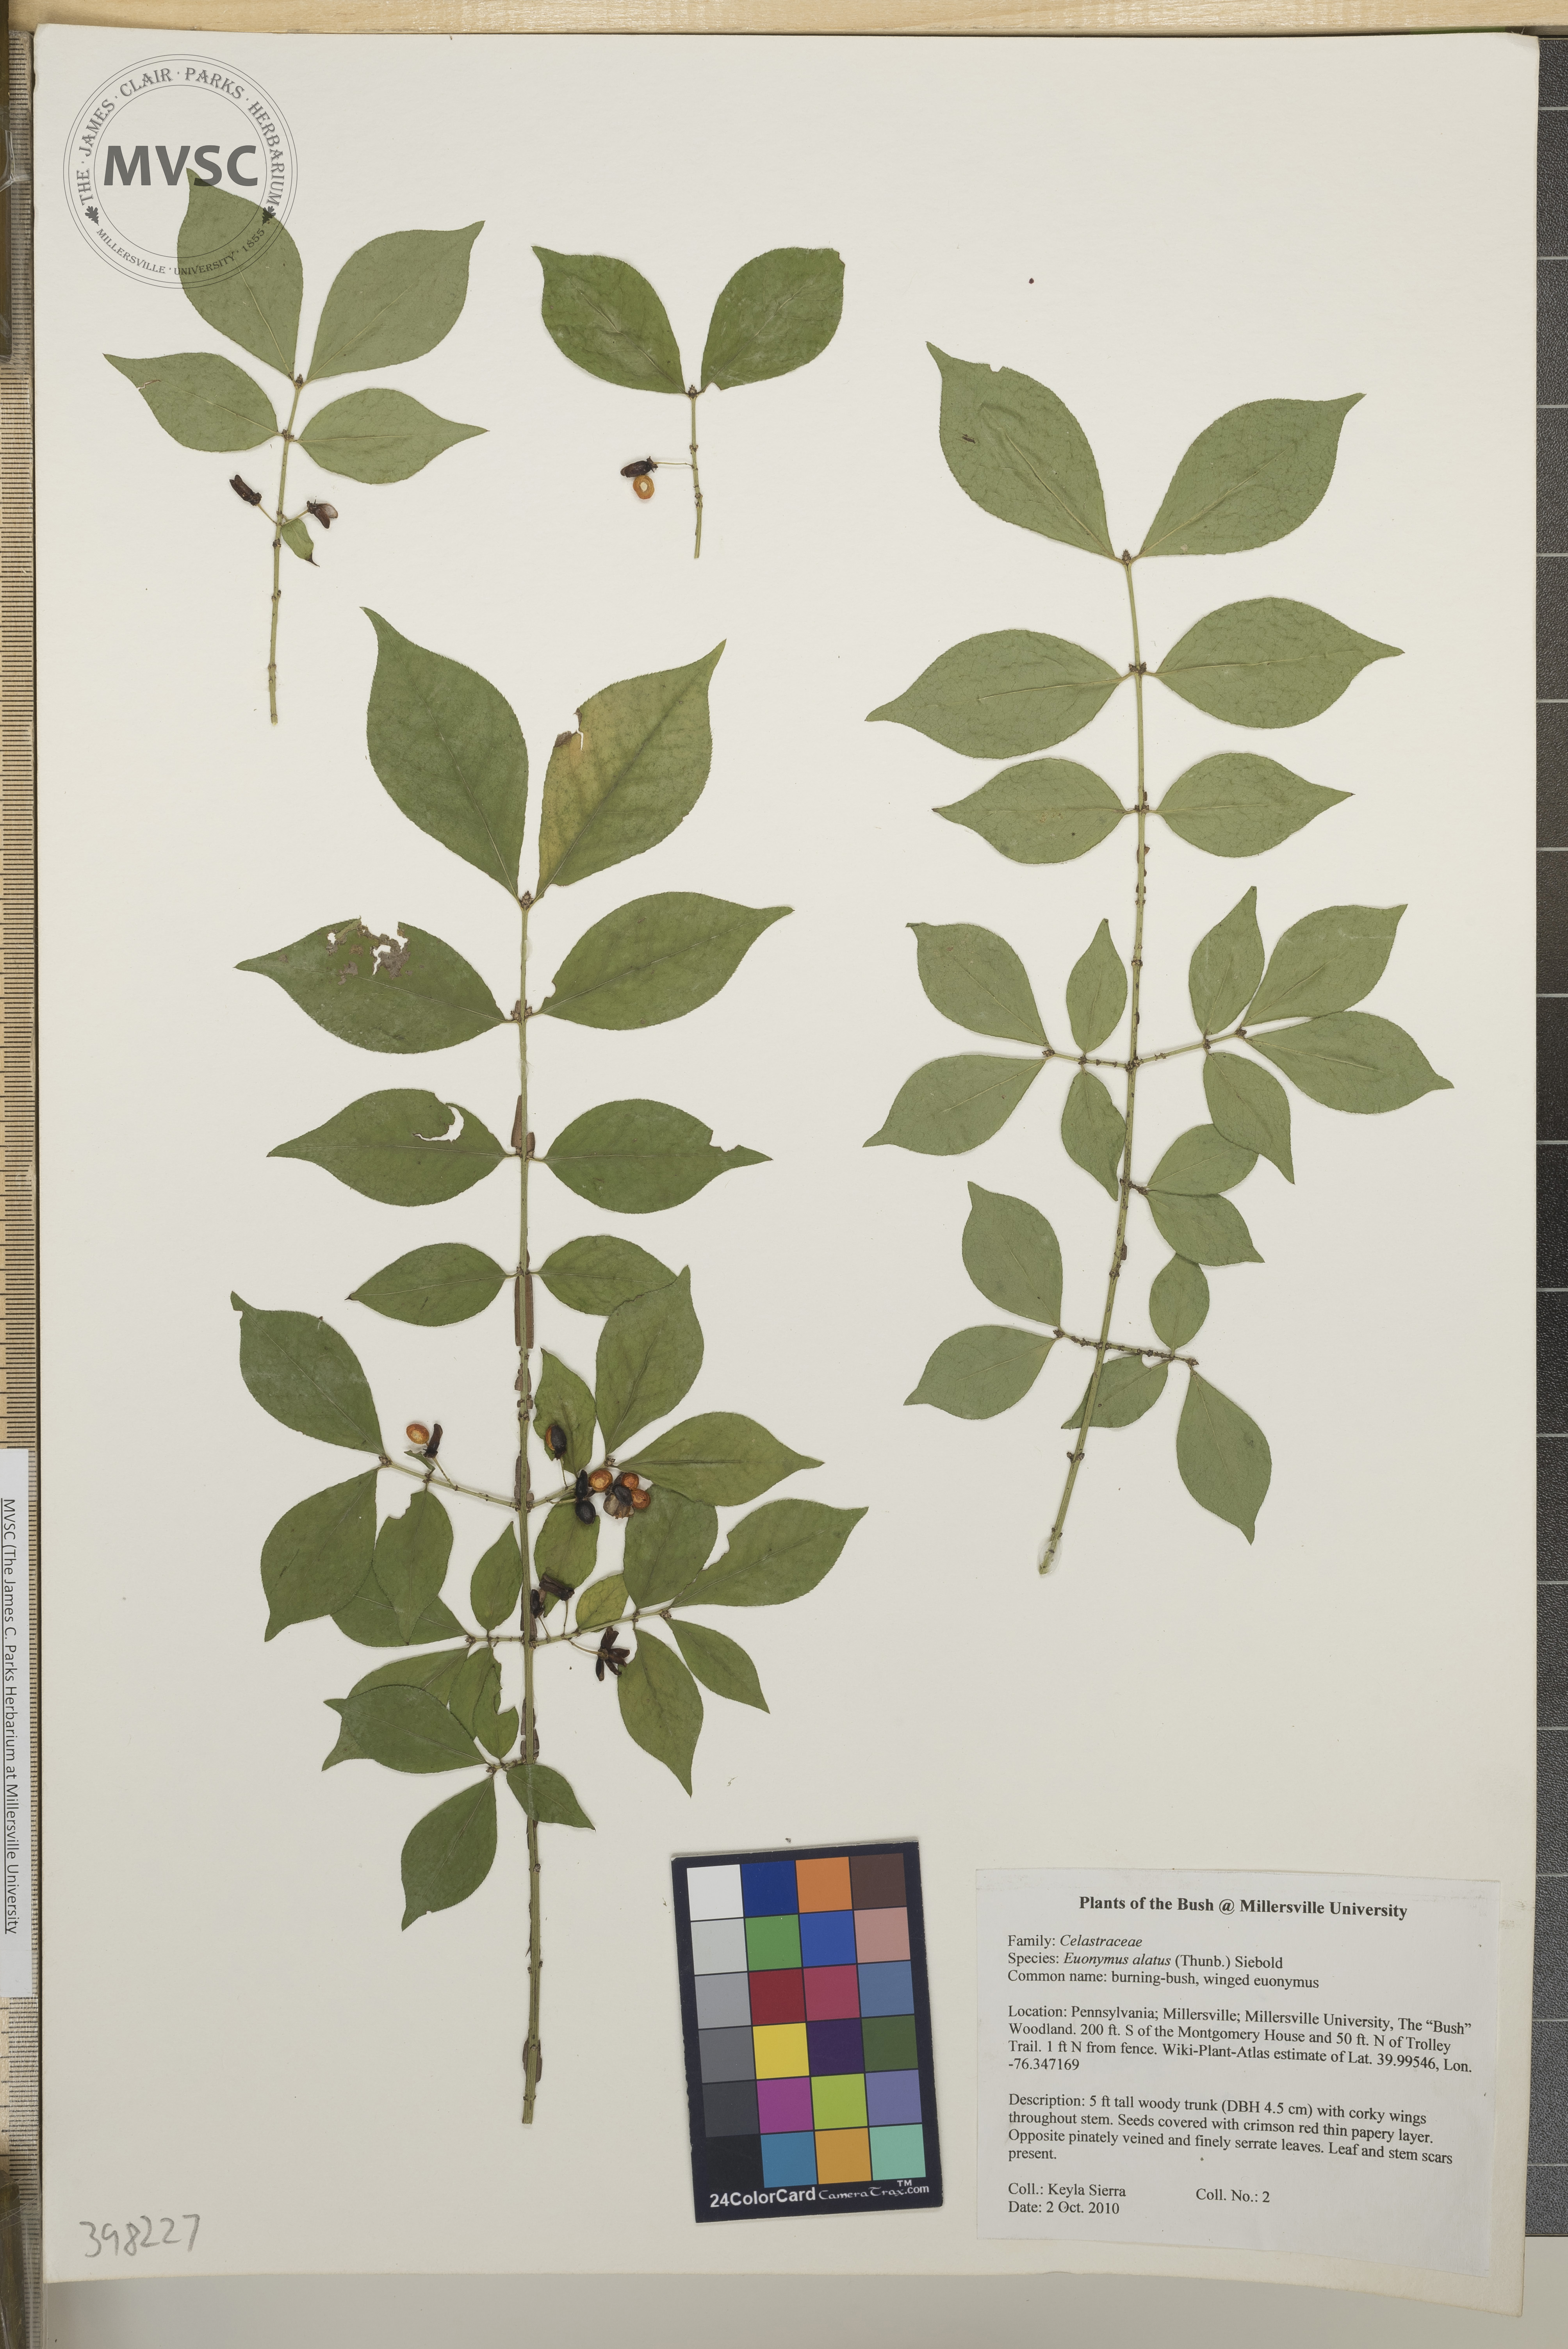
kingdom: Plantae
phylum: Tracheophyta
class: Magnoliopsida
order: Celastrales
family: Celastraceae
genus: Euonymus
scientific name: Euonymus alatus
